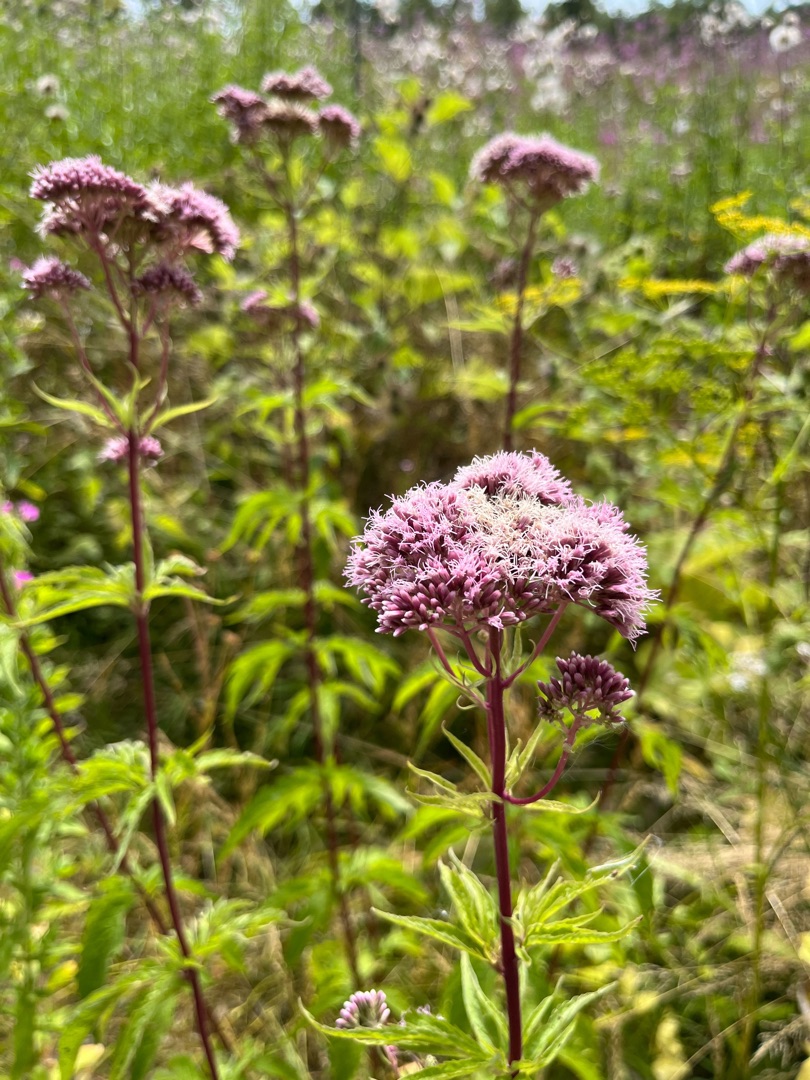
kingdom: Plantae
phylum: Tracheophyta
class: Magnoliopsida
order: Asterales
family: Asteraceae
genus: Eupatorium
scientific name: Eupatorium cannabinum
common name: Hjortetrøst
